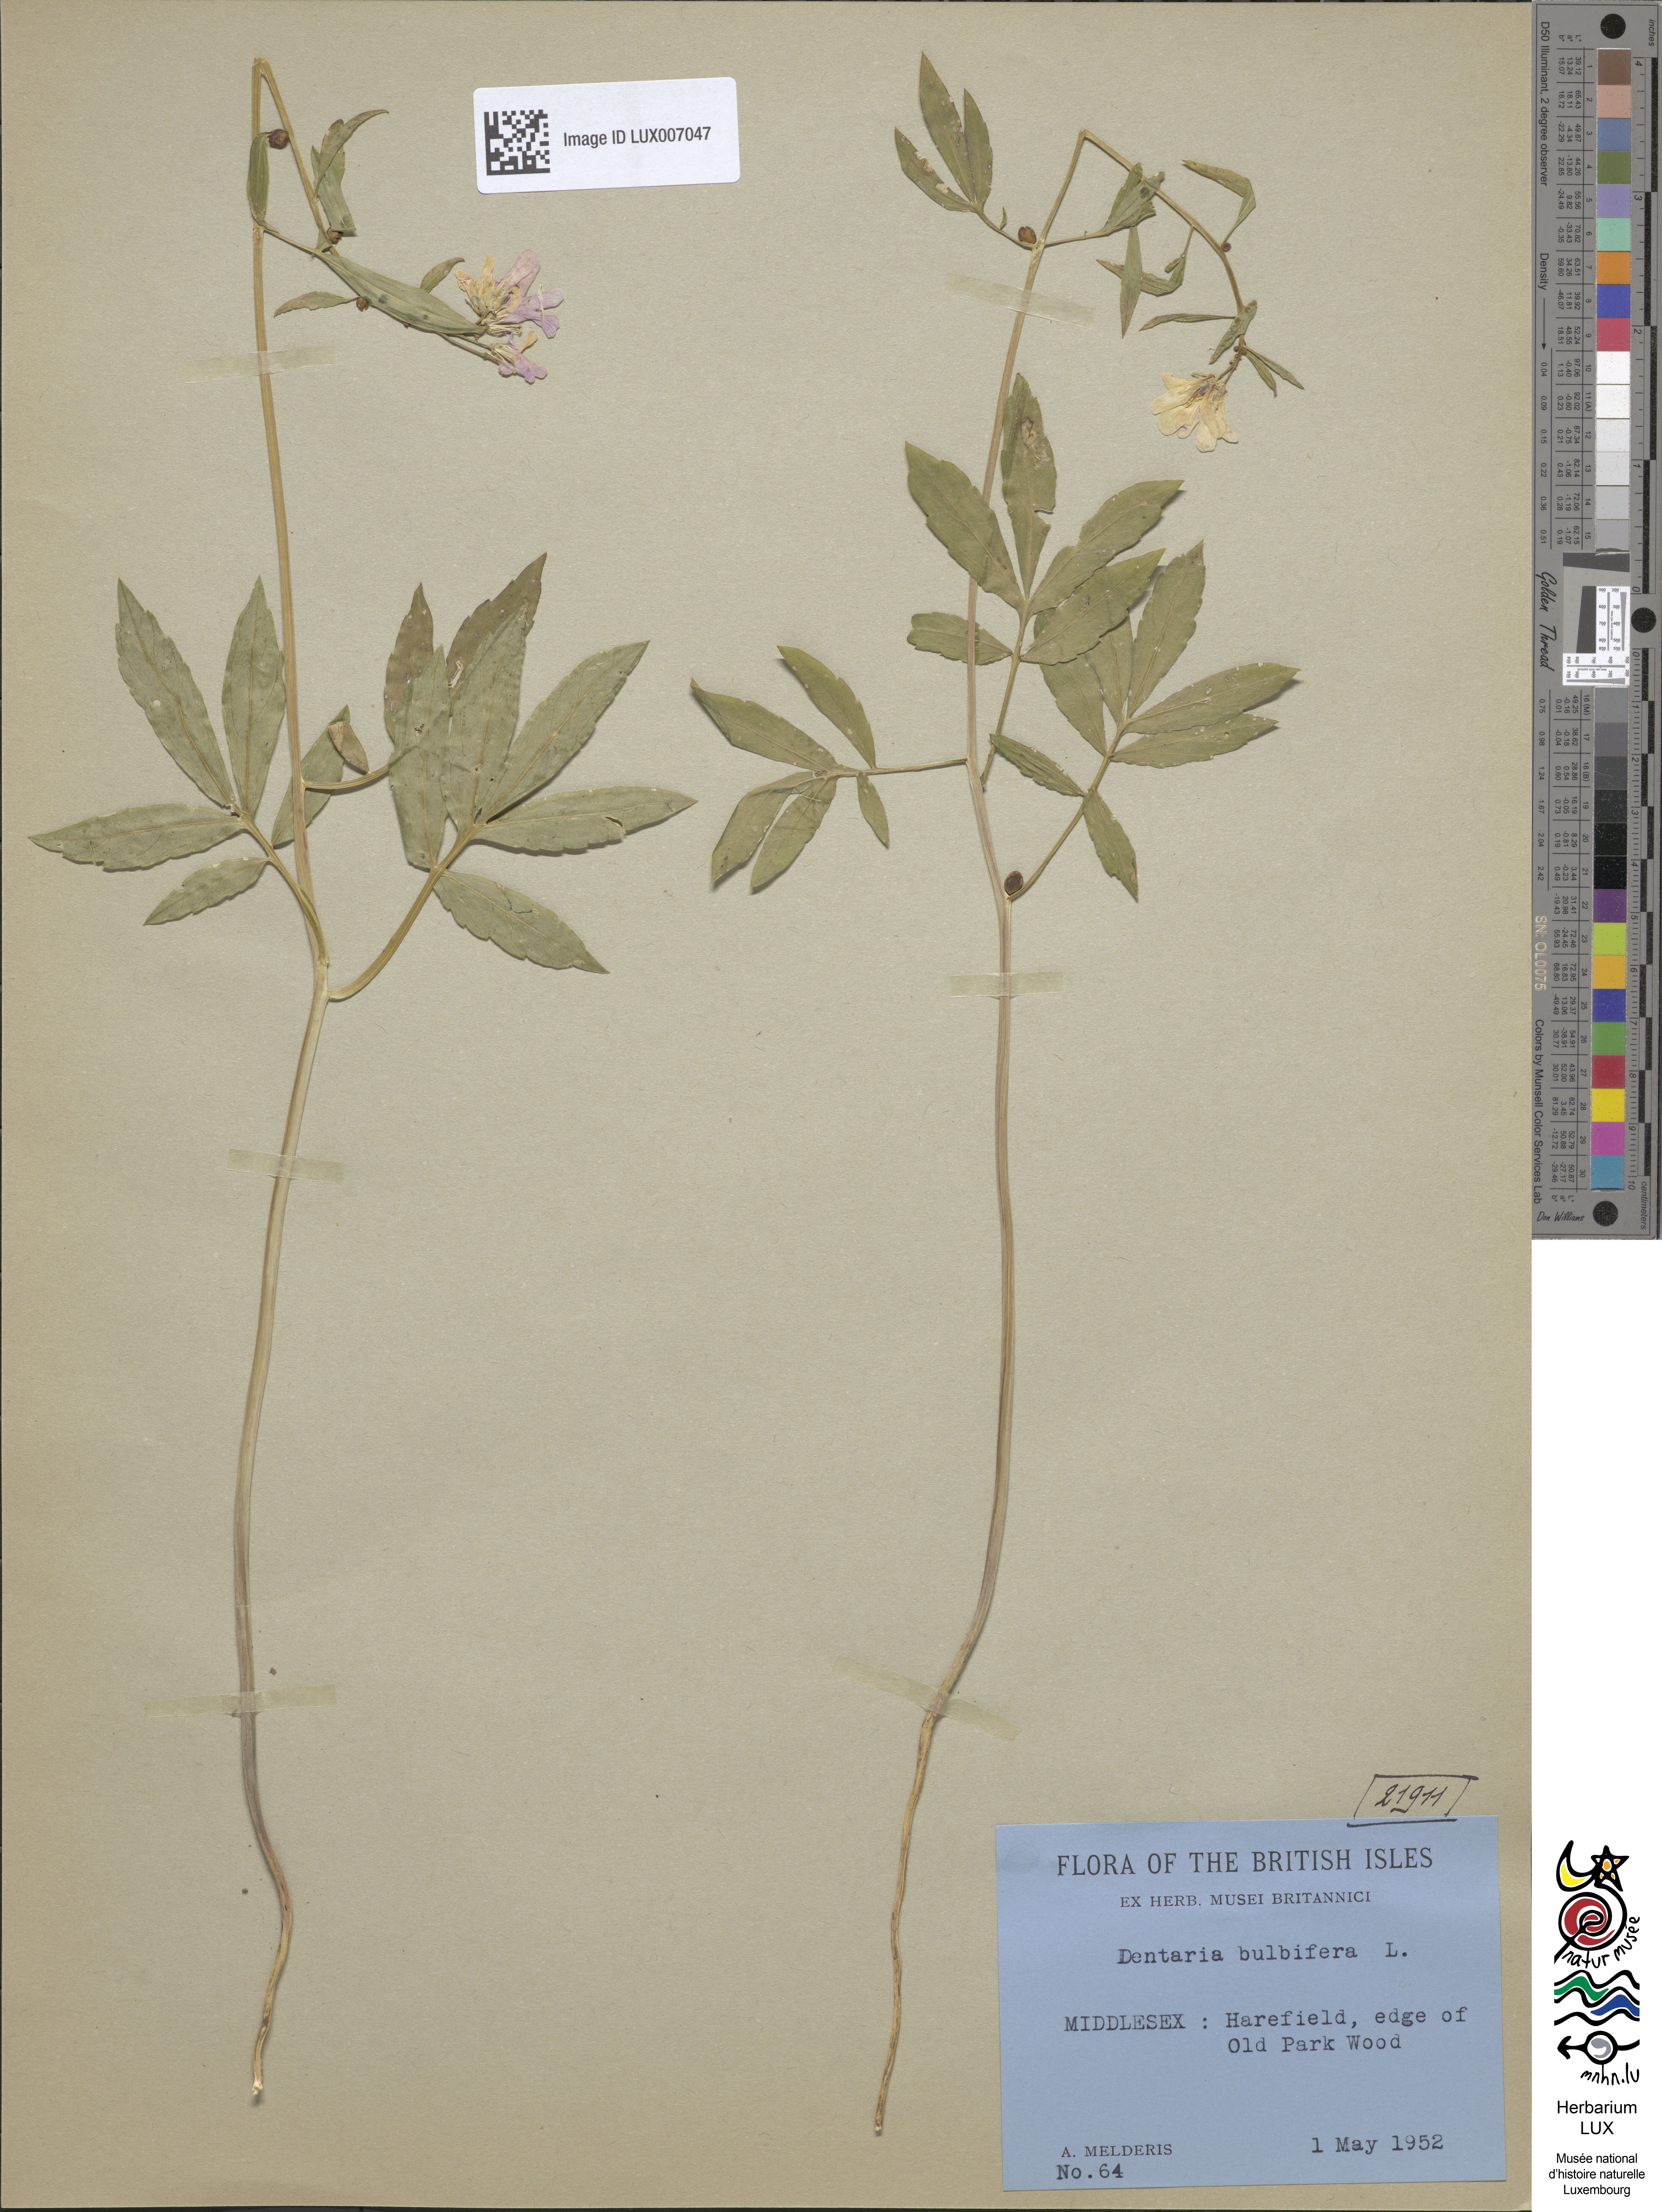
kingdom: Plantae
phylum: Tracheophyta
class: Magnoliopsida
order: Brassicales
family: Brassicaceae
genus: Cardamine
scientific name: Cardamine bulbifera
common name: Coralroot bittercress
